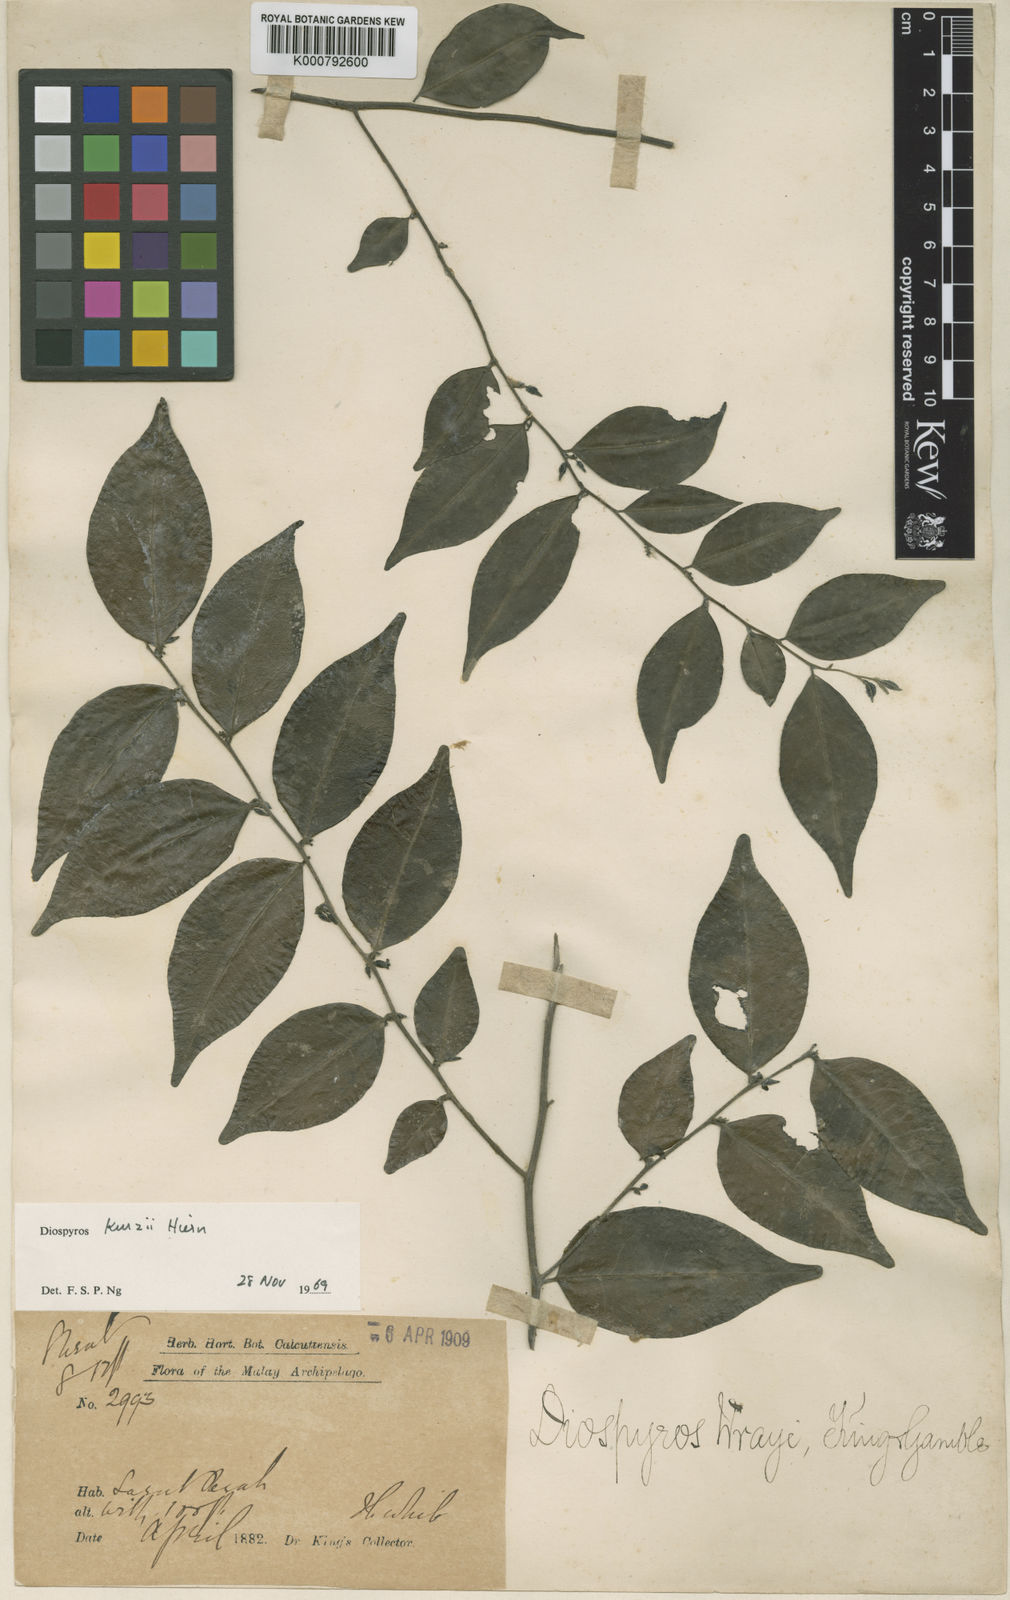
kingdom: Plantae
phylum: Tracheophyta
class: Magnoliopsida
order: Ericales
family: Ebenaceae
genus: Diospyros
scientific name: Diospyros kurzii
